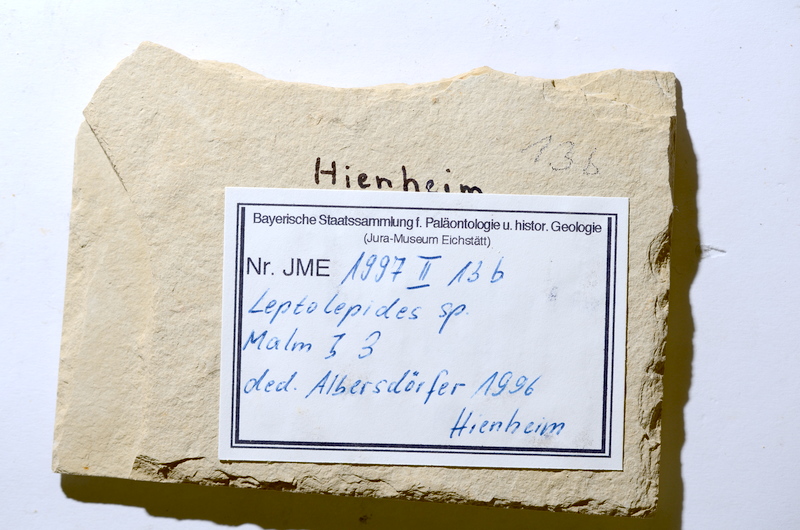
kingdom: Animalia
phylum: Chordata
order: Salmoniformes
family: Orthogonikleithridae
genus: Leptolepides
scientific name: Leptolepides
